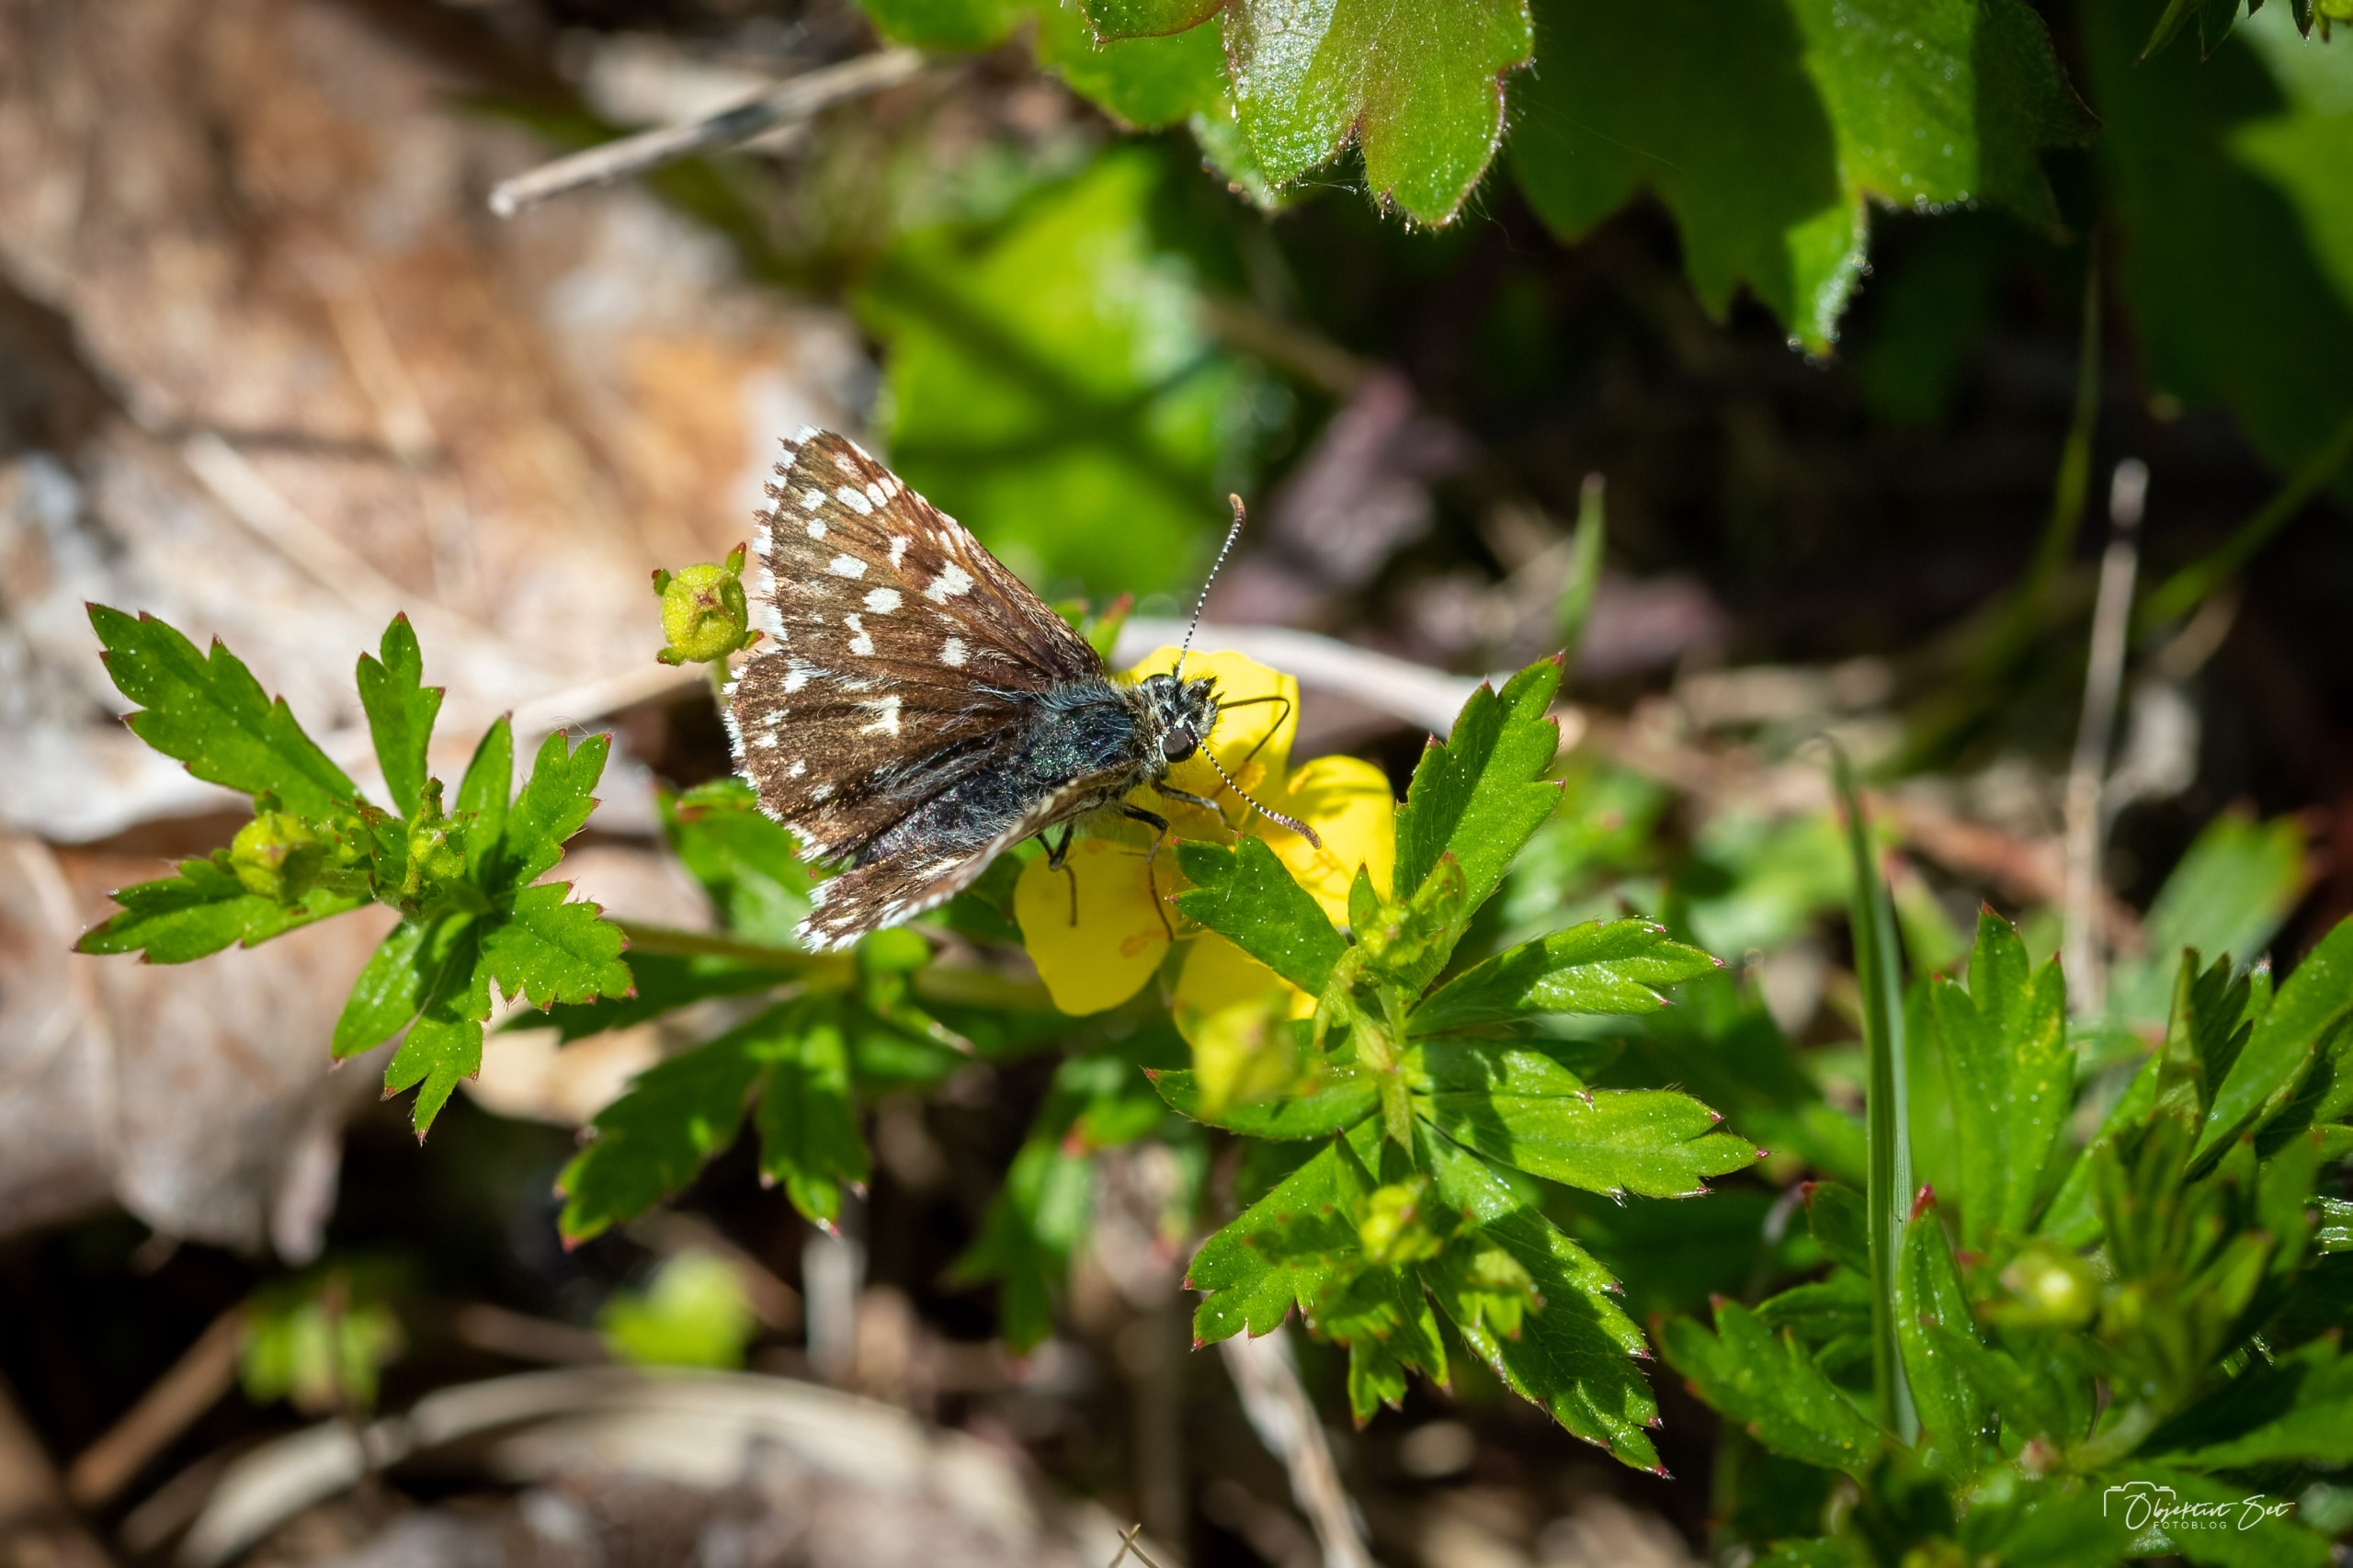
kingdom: Animalia
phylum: Arthropoda
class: Insecta
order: Lepidoptera
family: Hesperiidae
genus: Pyrgus
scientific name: Pyrgus malvae
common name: Spættet bredpande
